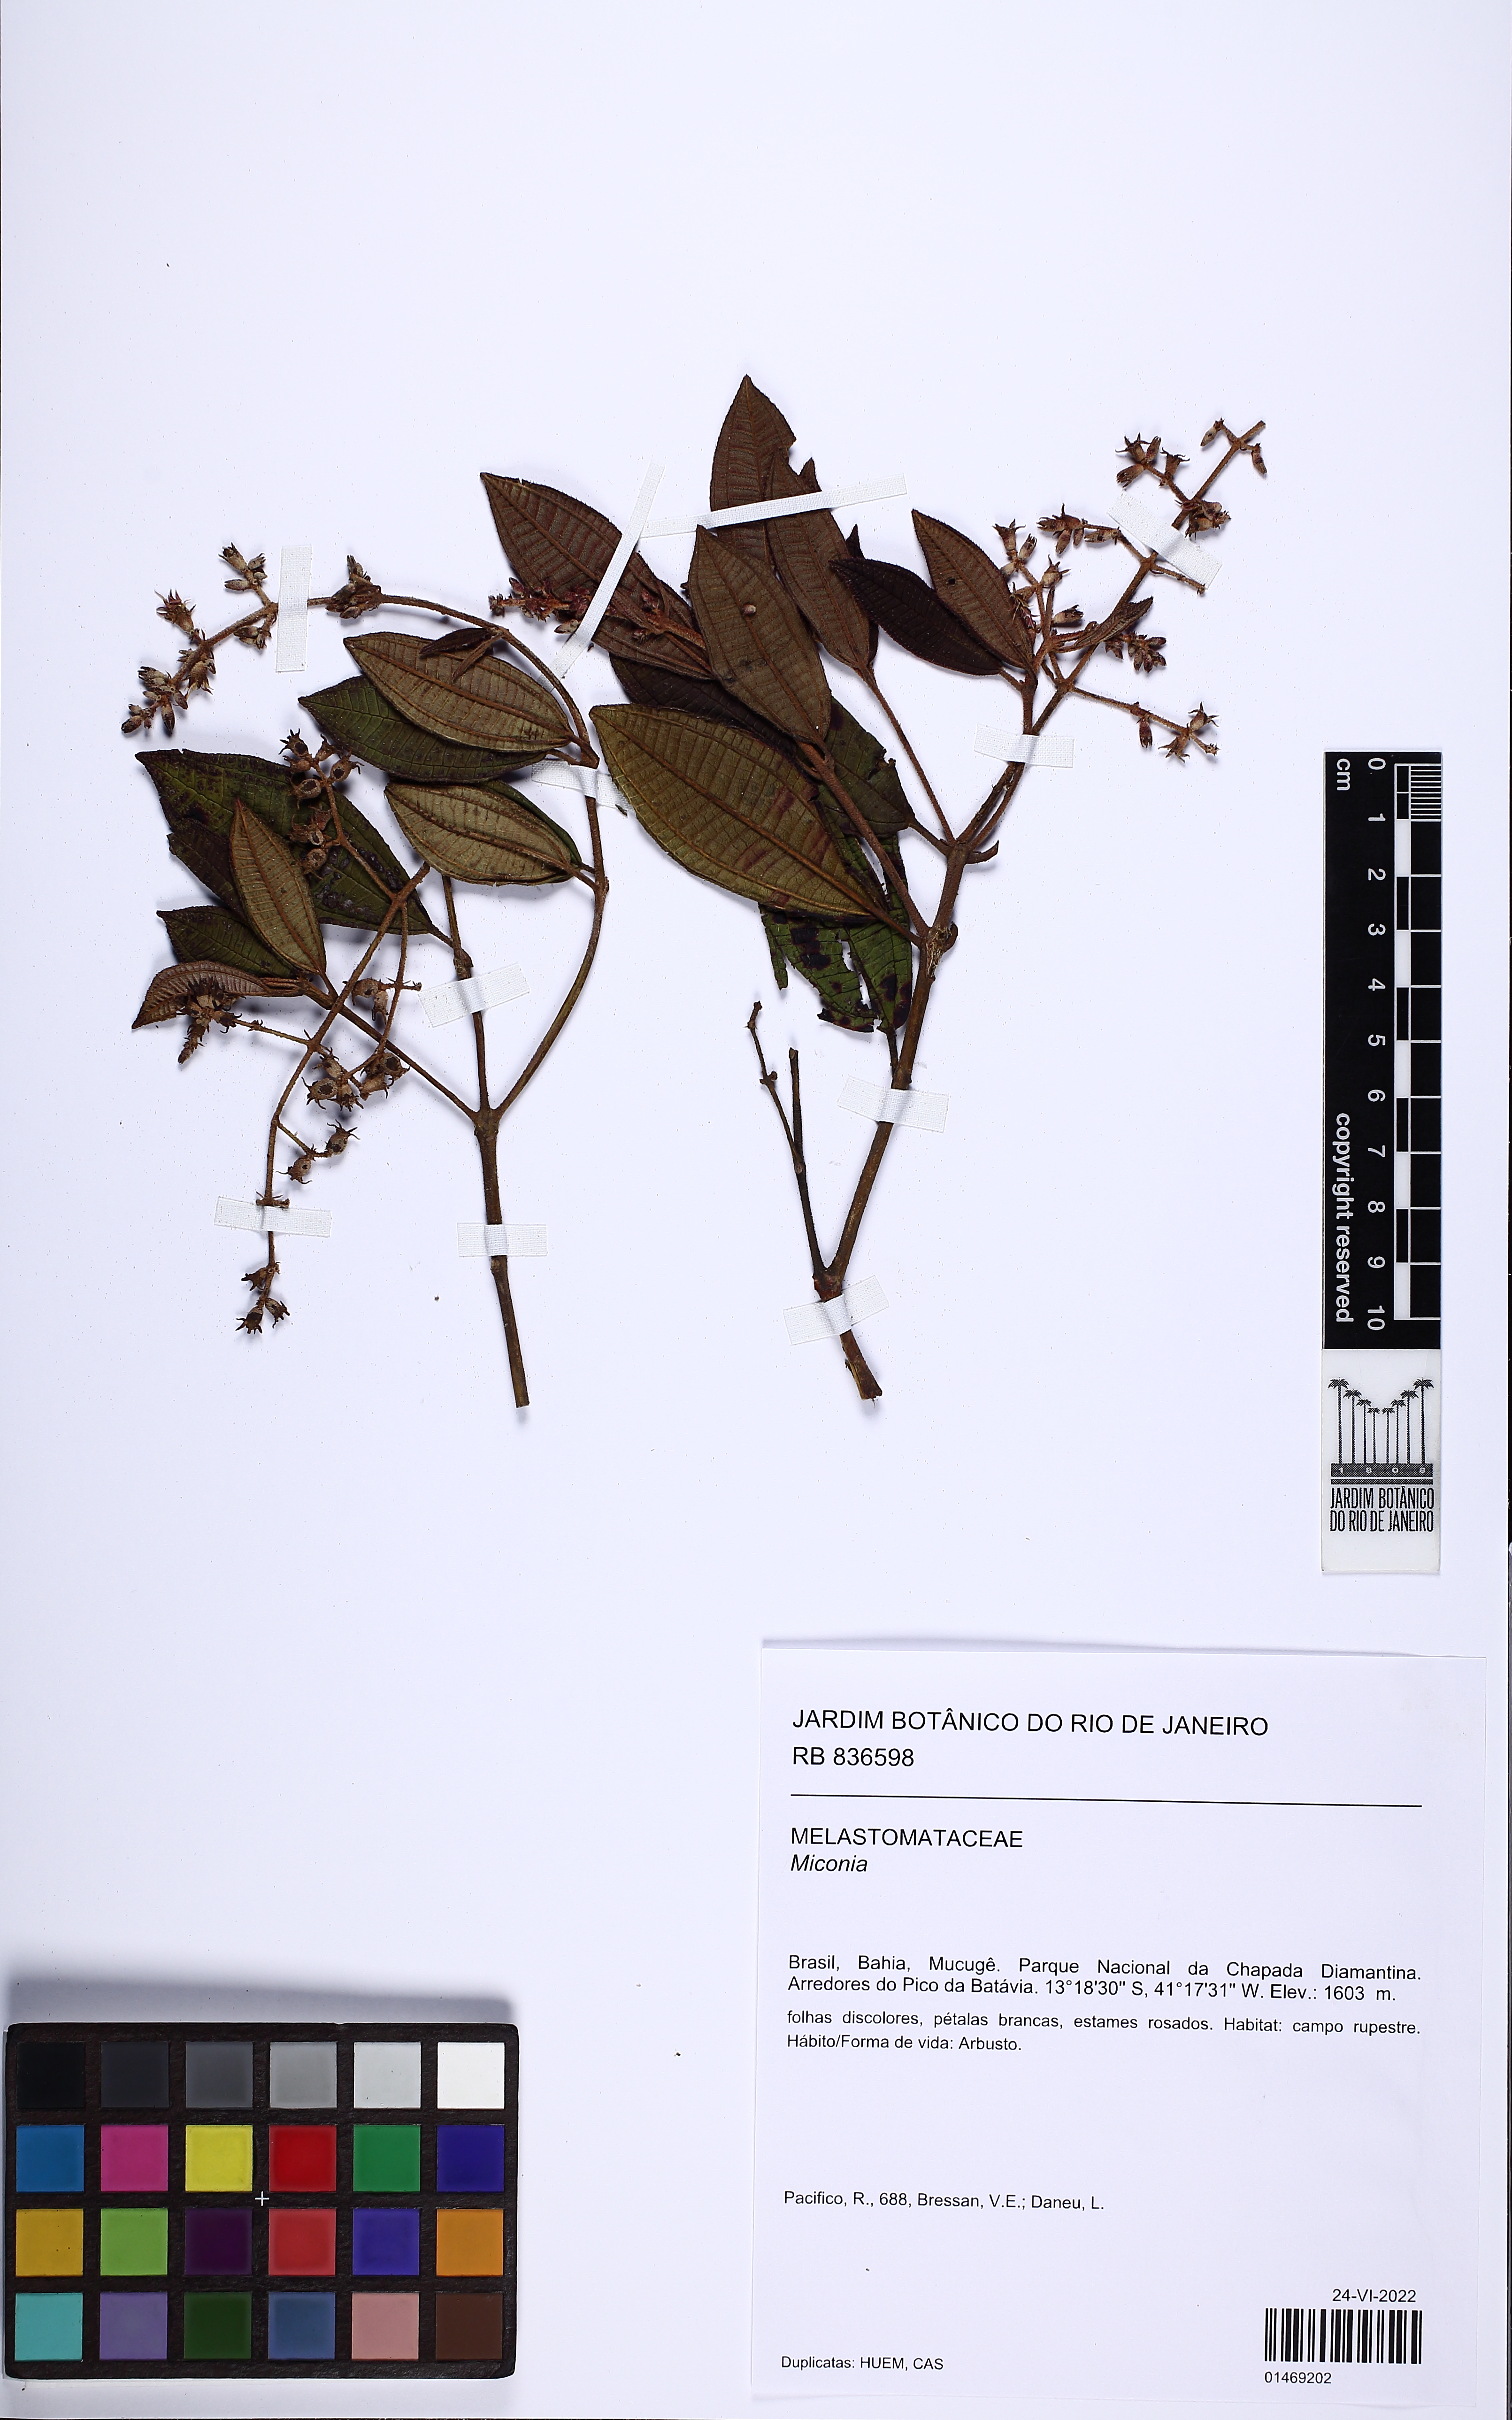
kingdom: Plantae
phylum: Tracheophyta
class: Magnoliopsida
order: Myrtales
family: Melastomataceae
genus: Miconia
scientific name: Miconia
